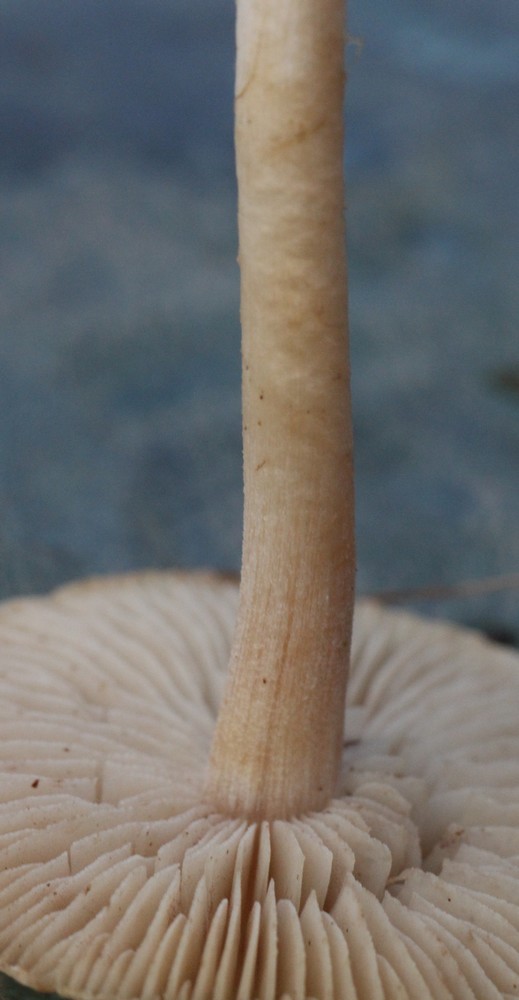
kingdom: Fungi
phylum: Basidiomycota
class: Agaricomycetes
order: Agaricales
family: Inocybaceae
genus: Inocybe
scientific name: Inocybe sindonia
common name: bleg trævlhat
